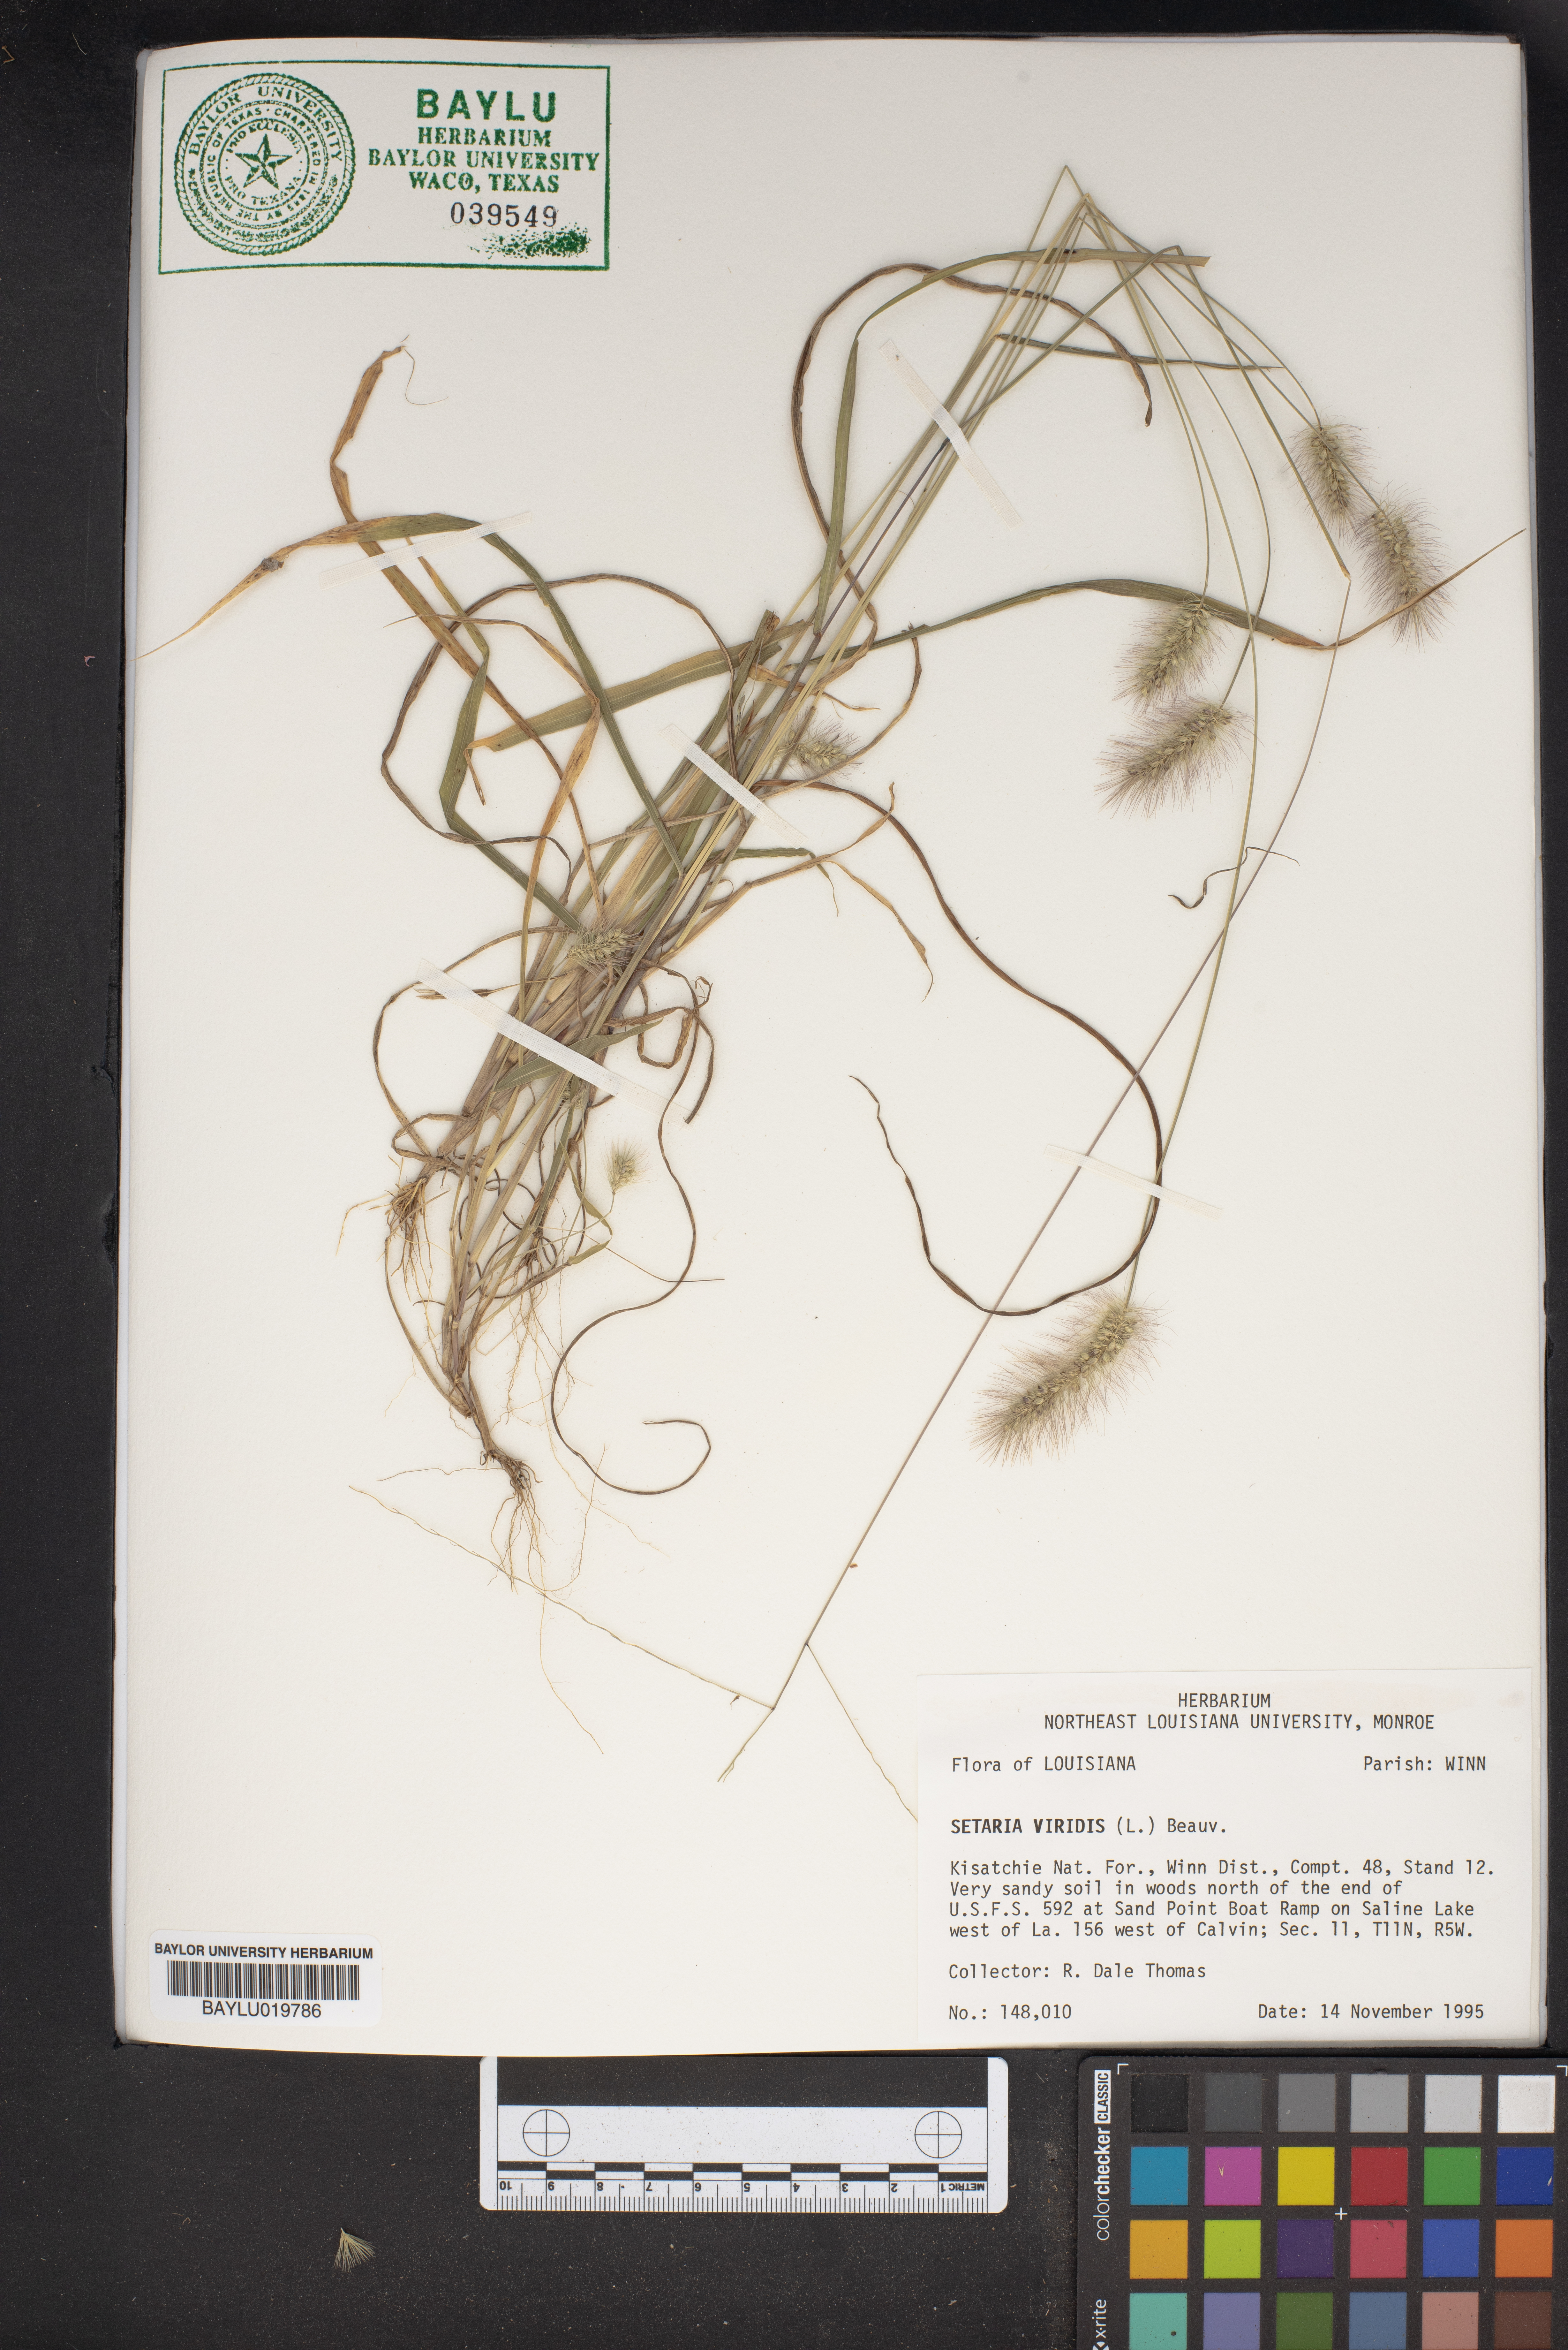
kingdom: Plantae
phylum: Tracheophyta
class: Liliopsida
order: Poales
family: Poaceae
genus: Setaria
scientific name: Setaria viridis
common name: Green bristlegrass
